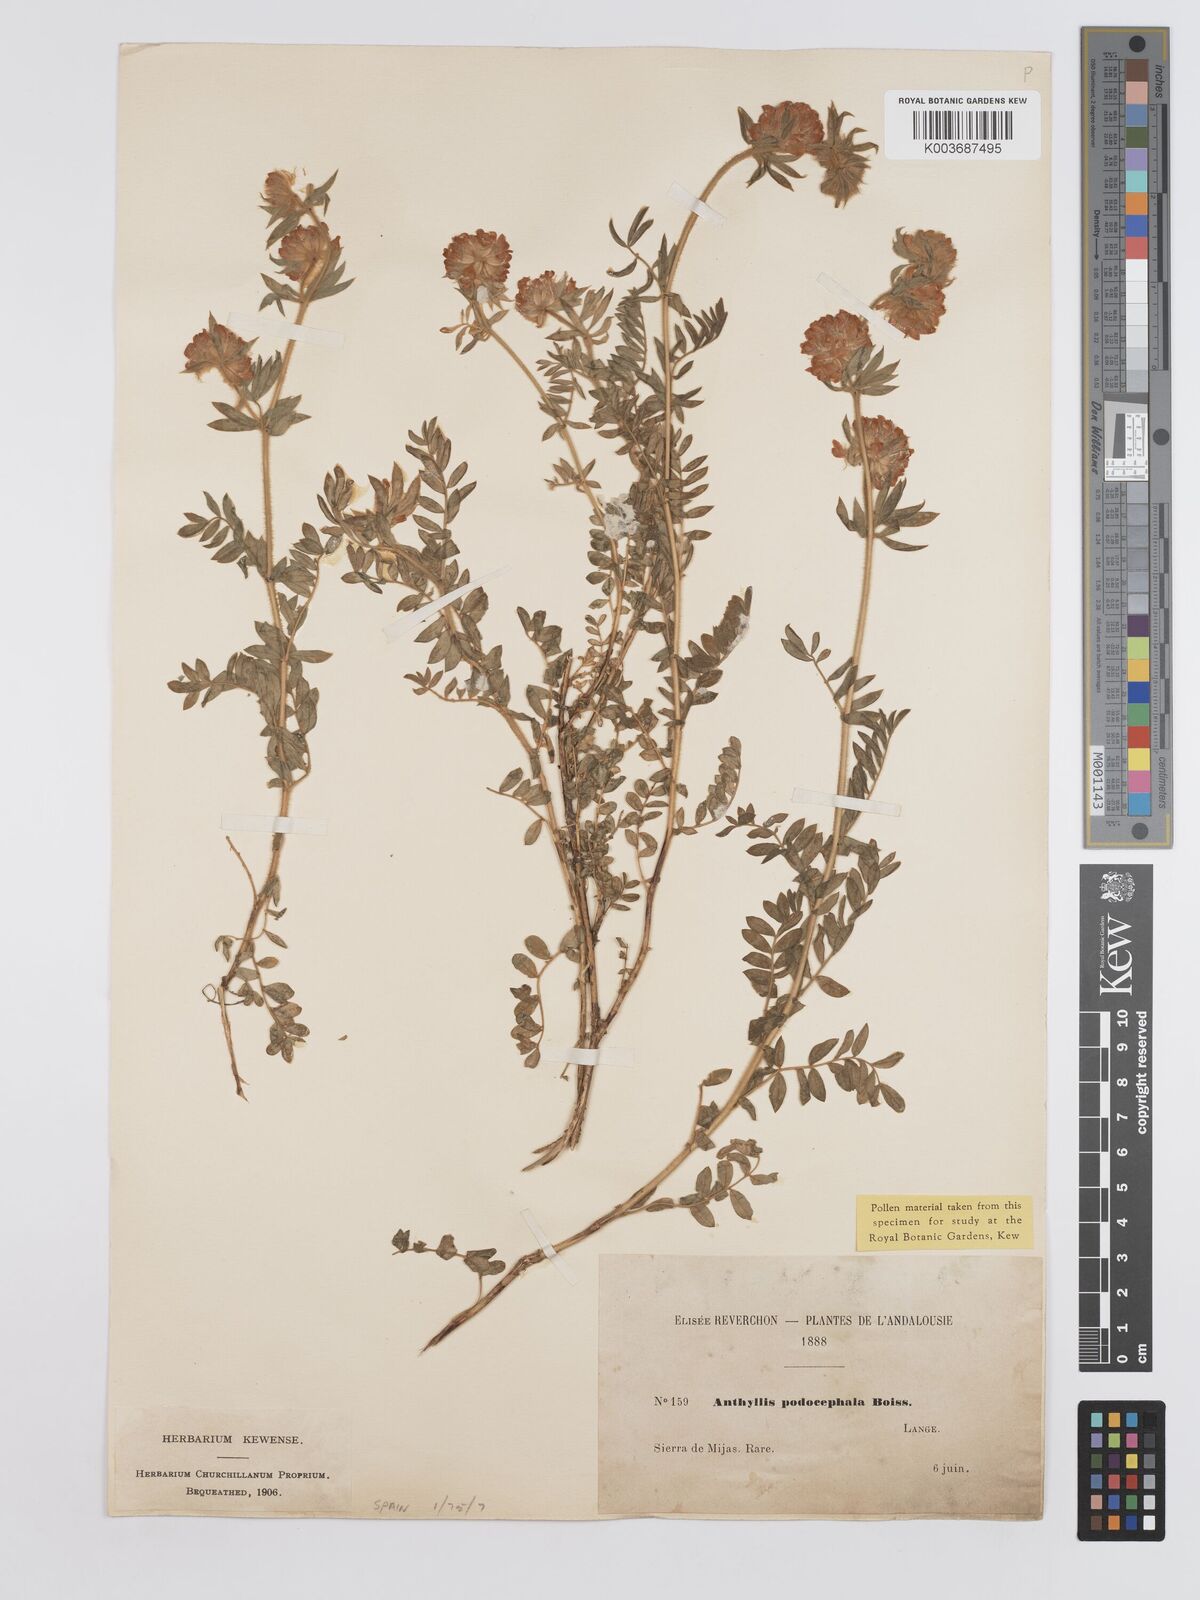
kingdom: Plantae
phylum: Tracheophyta
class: Magnoliopsida
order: Fabales
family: Fabaceae
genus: Anthyllis
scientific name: Anthyllis polycephala
